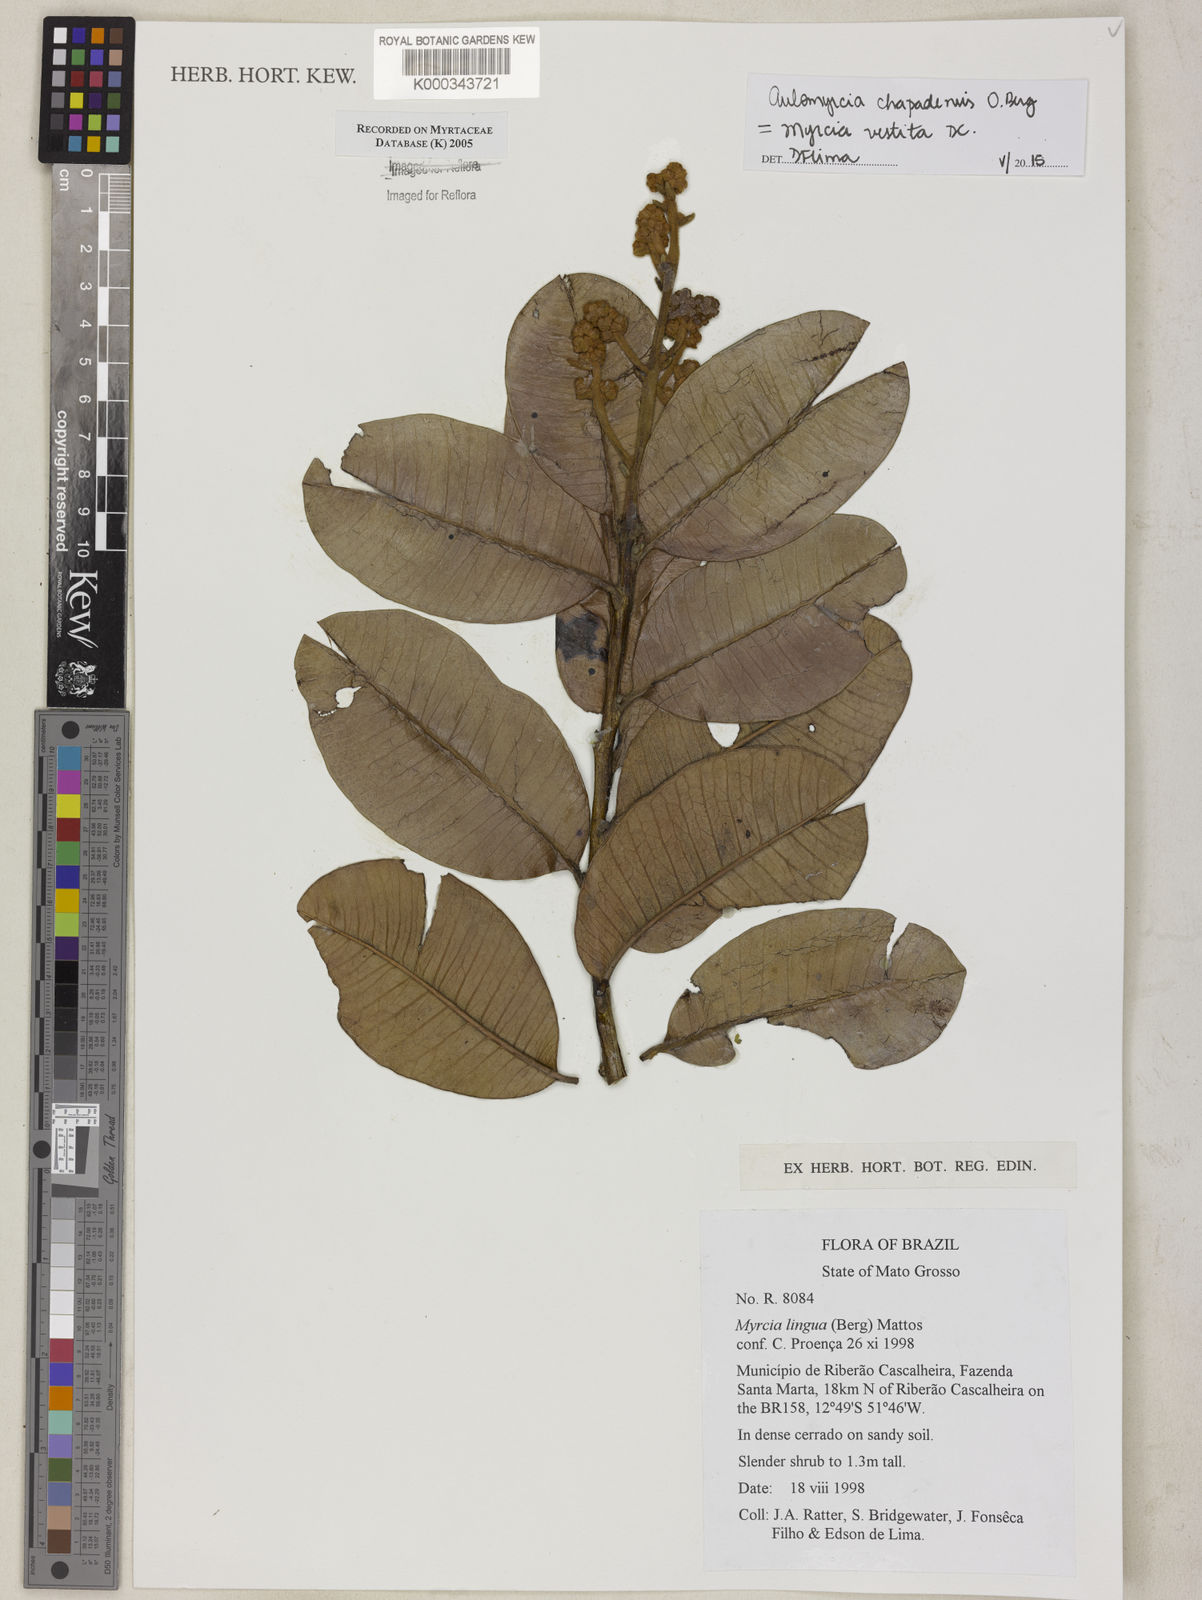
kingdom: Plantae
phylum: Tracheophyta
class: Magnoliopsida
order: Myrtales
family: Myrtaceae
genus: Myrcia
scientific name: Myrcia guianensis
